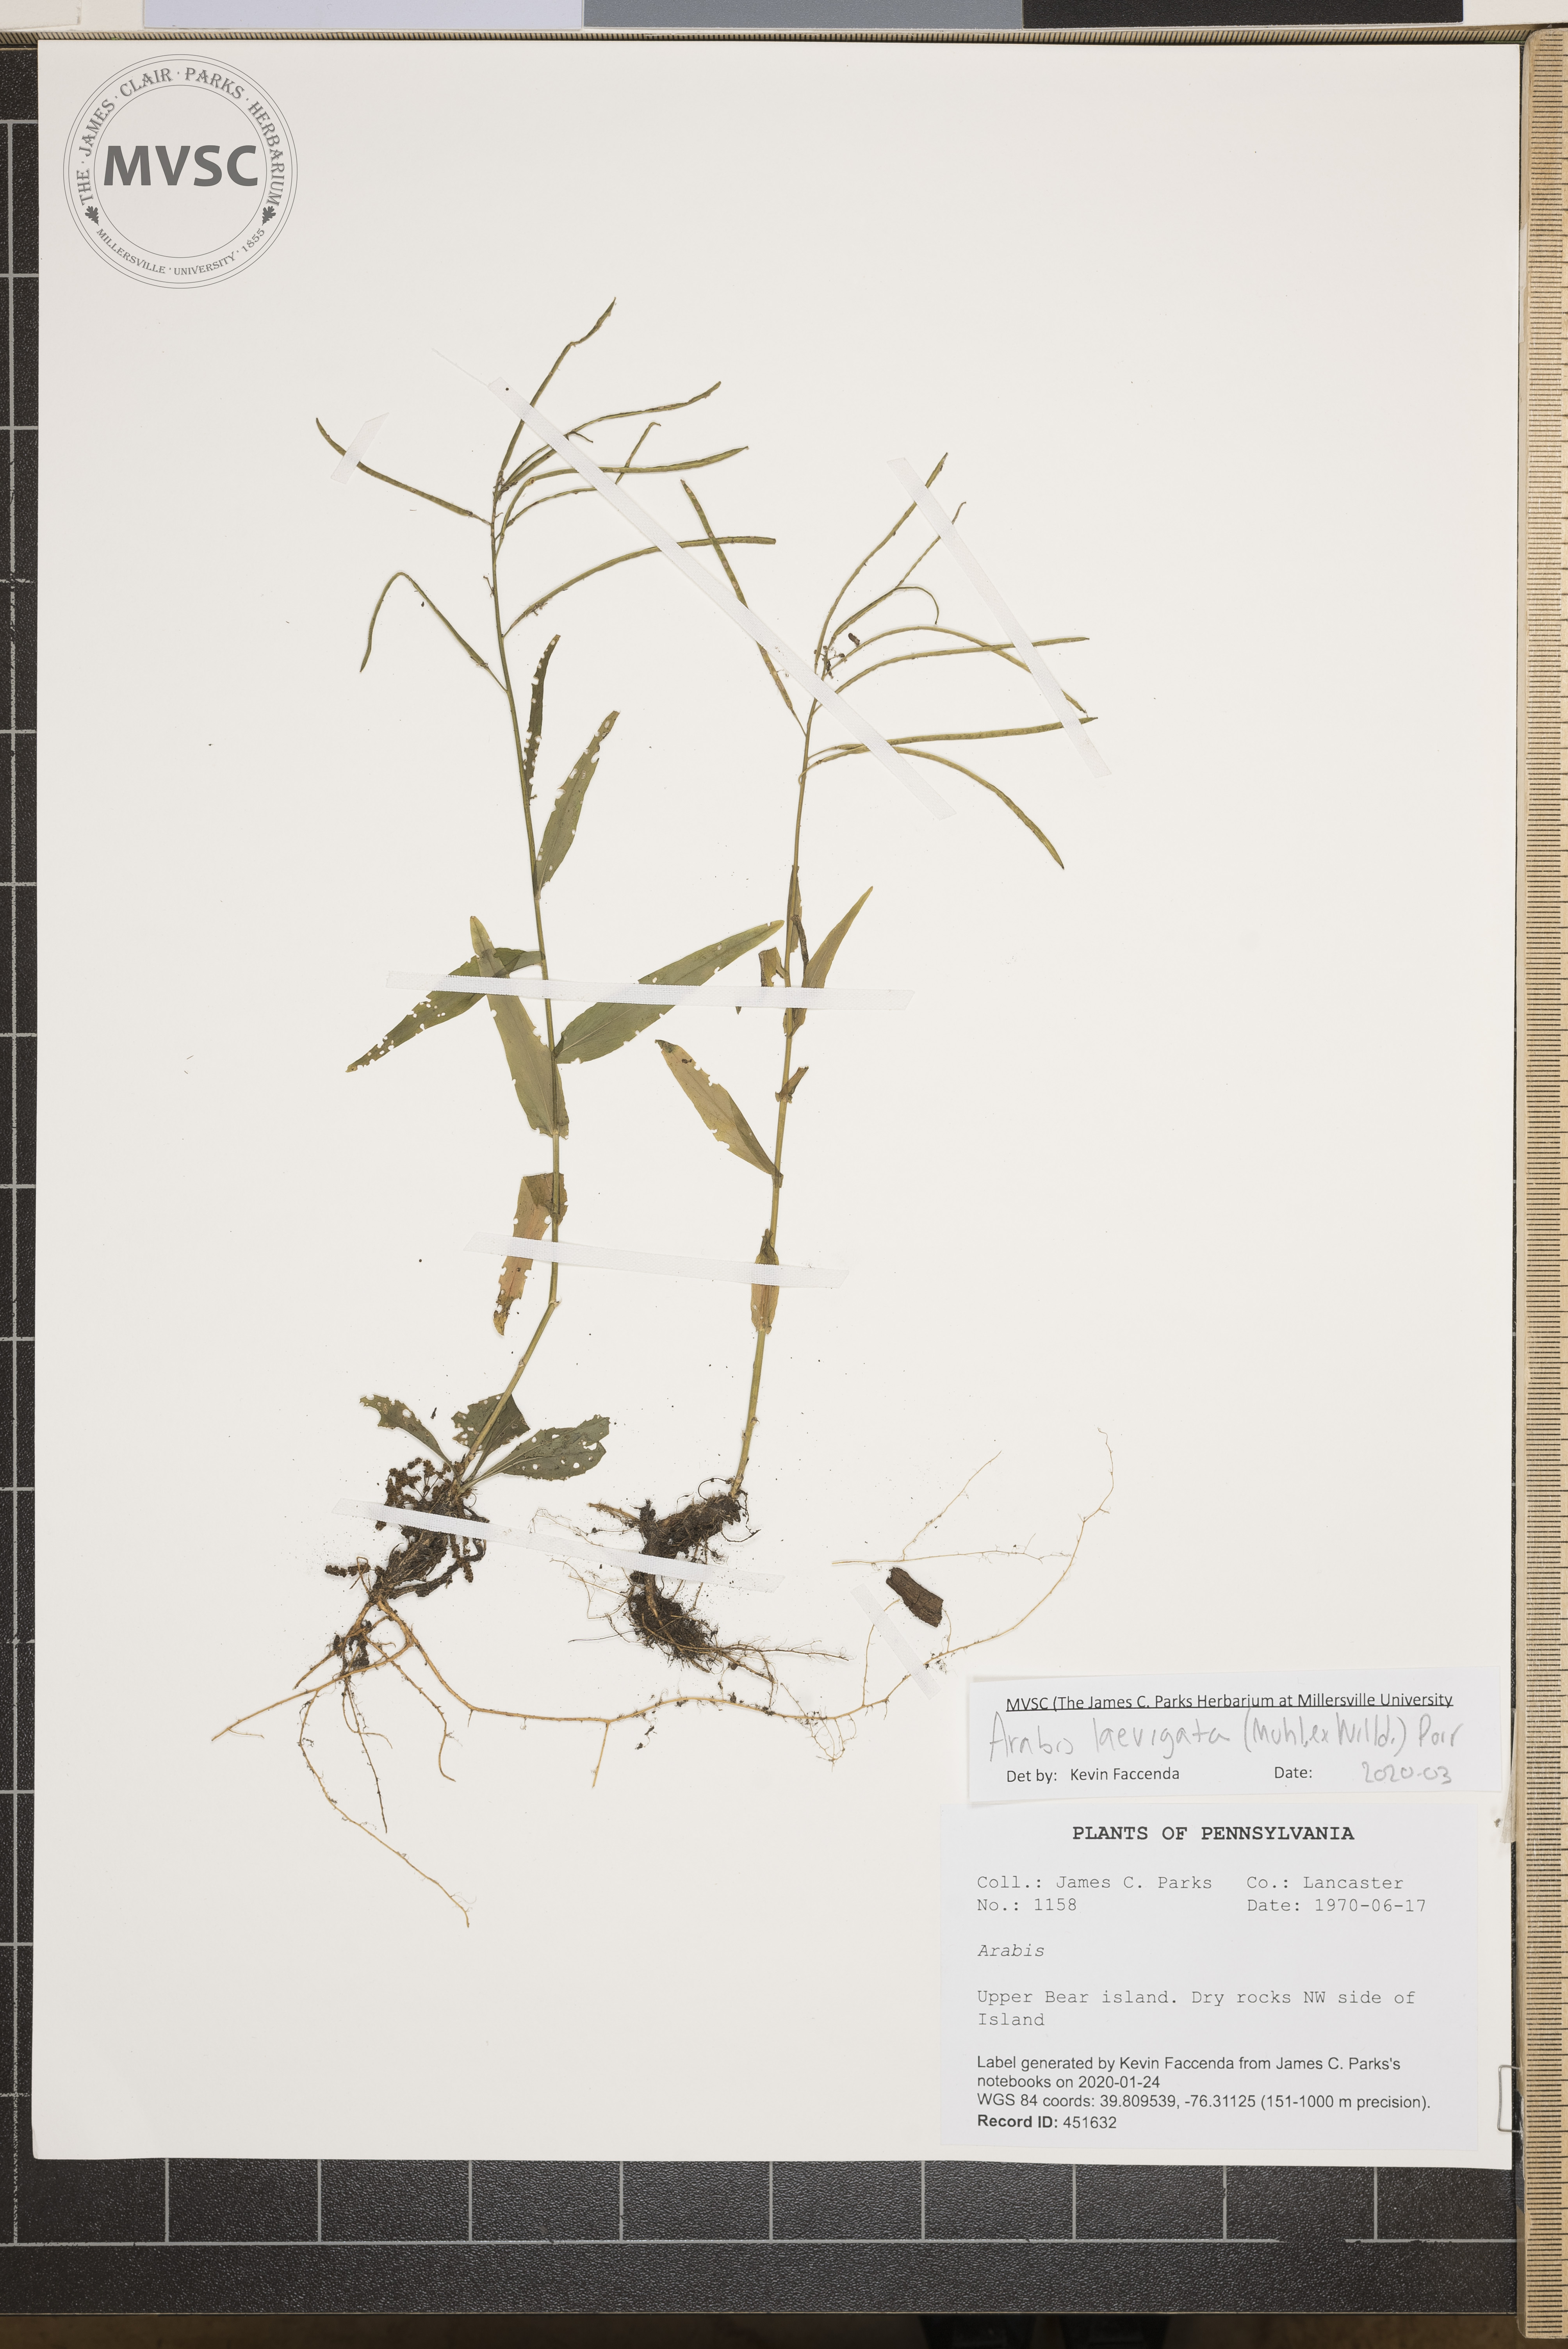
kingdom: Plantae
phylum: Tracheophyta
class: Magnoliopsida
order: Brassicales
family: Brassicaceae
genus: Borodinia
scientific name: Borodinia laevigata
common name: Smooth rockcress
